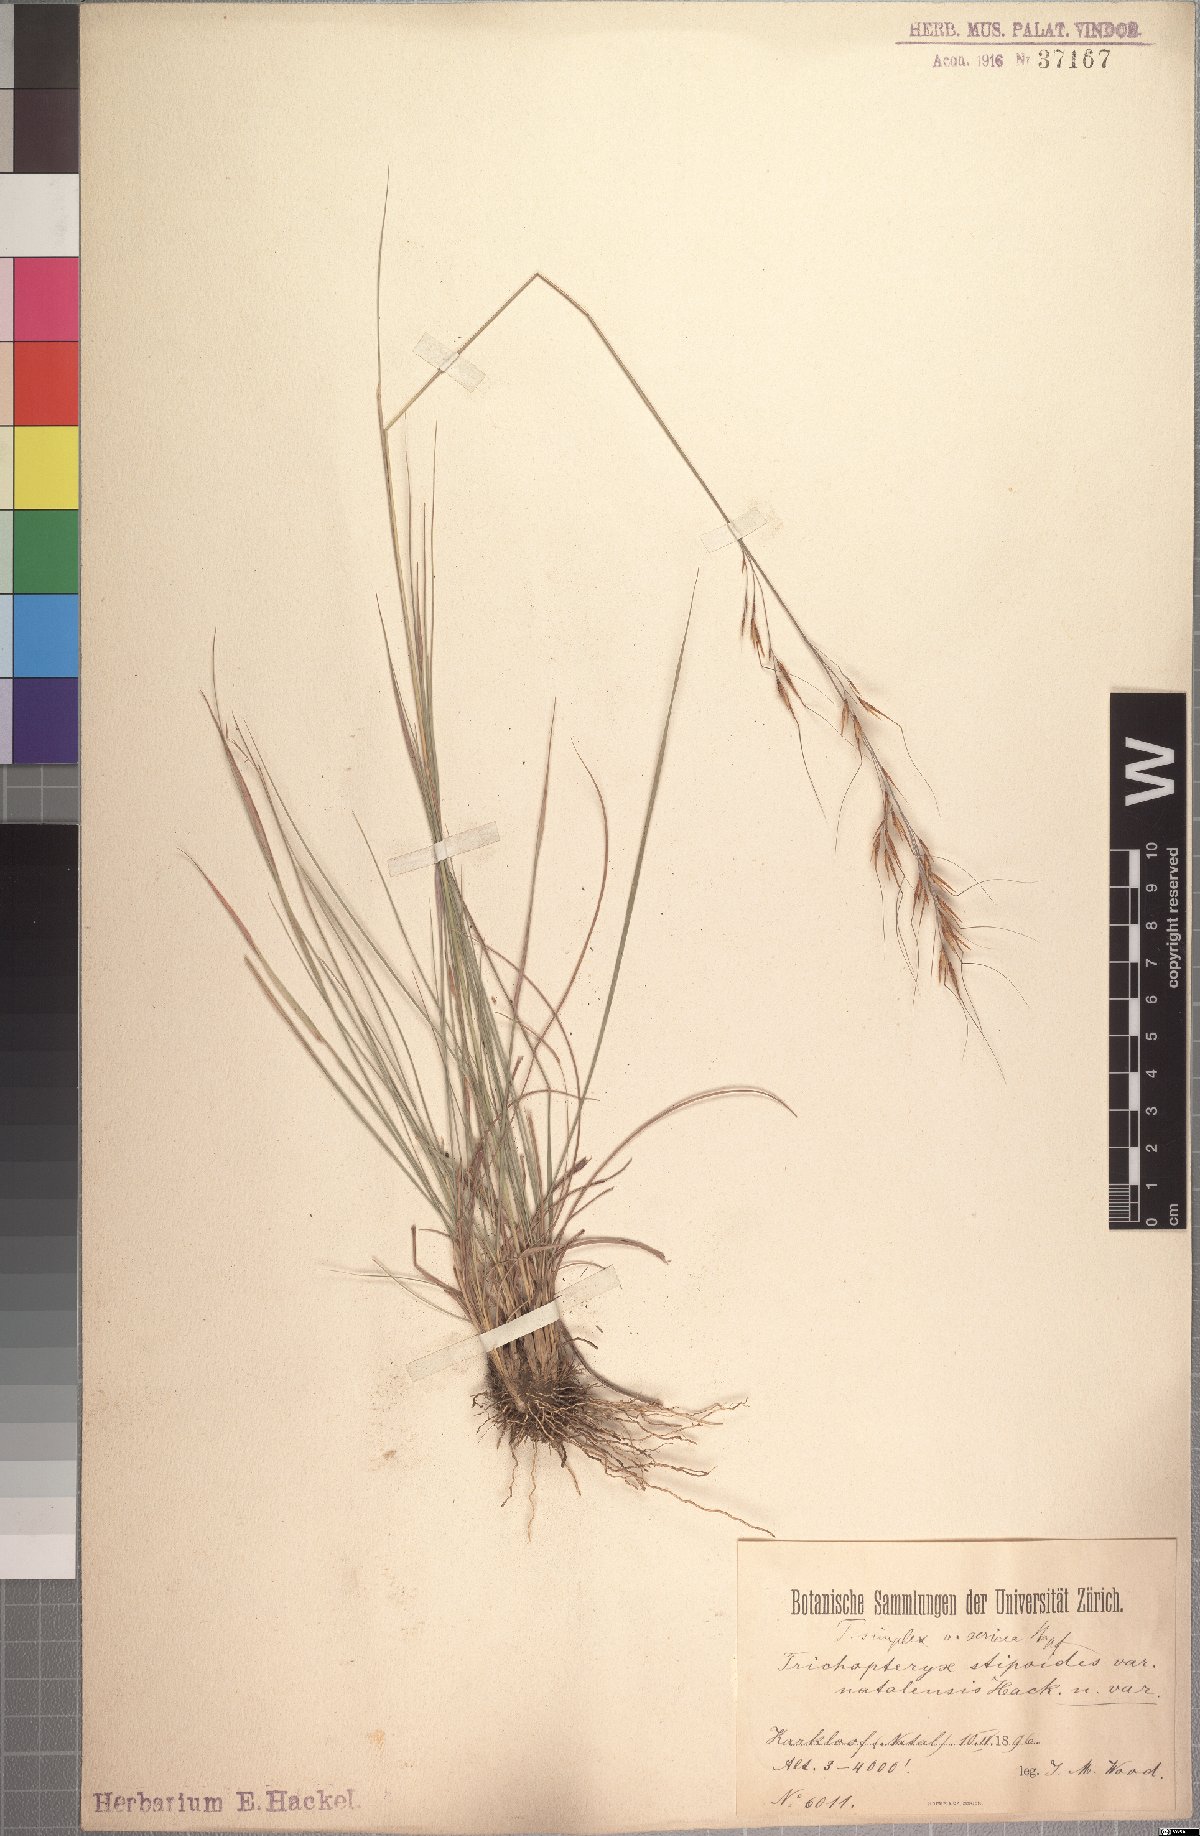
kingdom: Plantae
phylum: Tracheophyta
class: Liliopsida
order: Poales
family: Poaceae
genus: Loudetia
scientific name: Loudetia simplex
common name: Common russet grass
